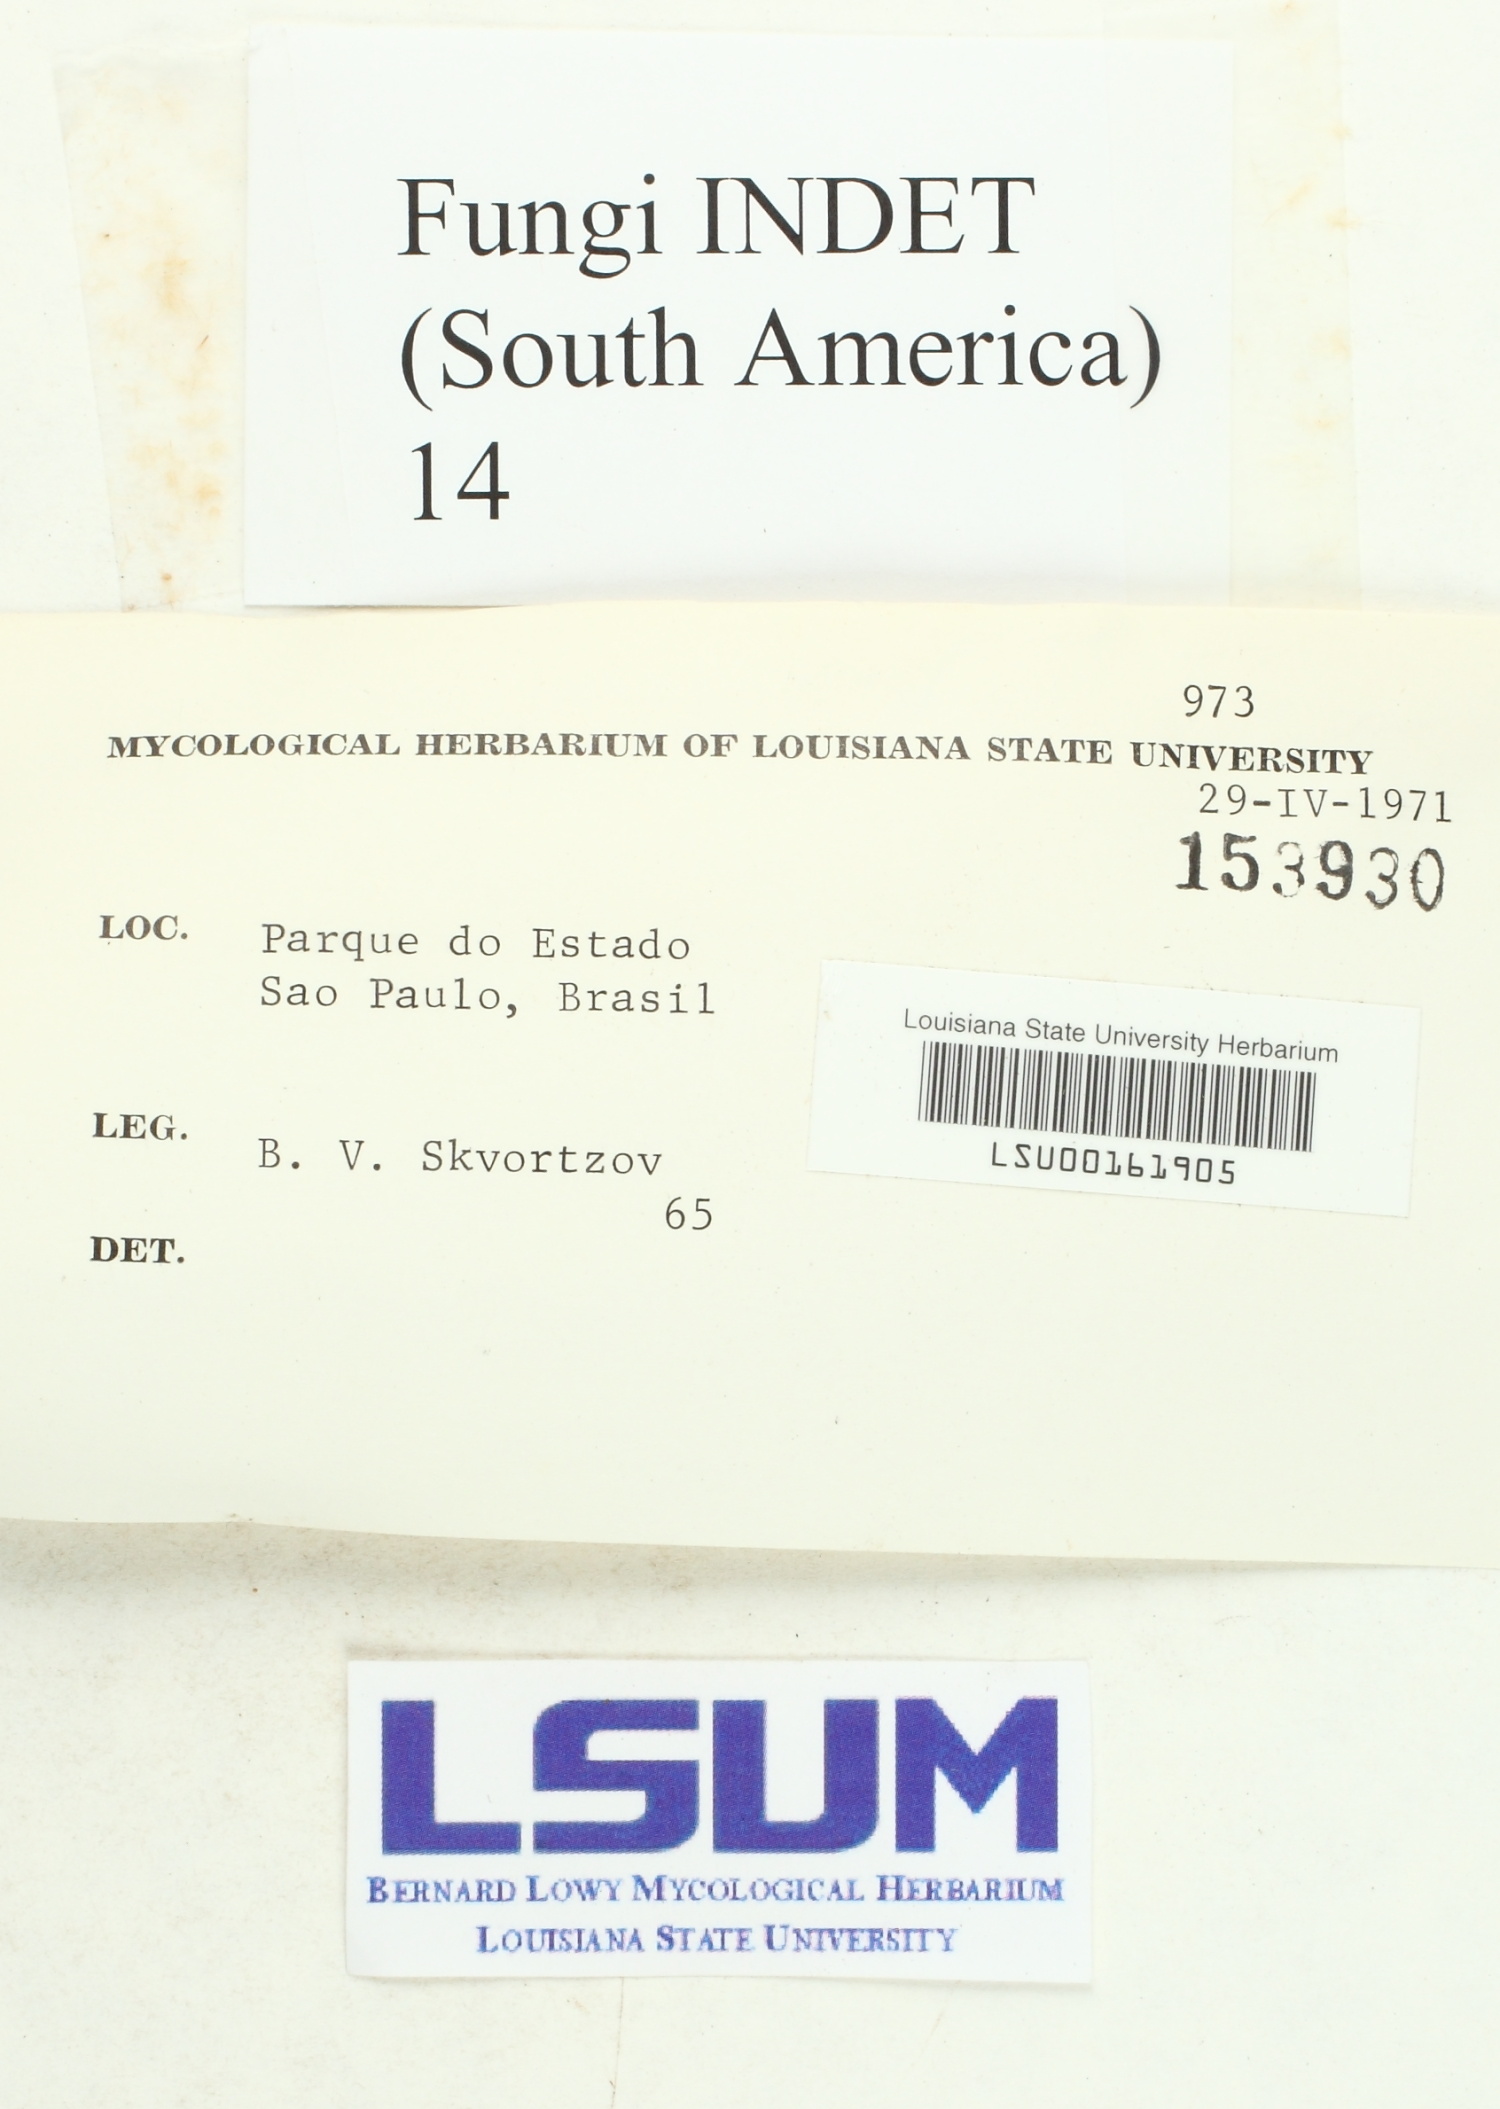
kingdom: Fungi
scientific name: Fungi
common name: Fungi
